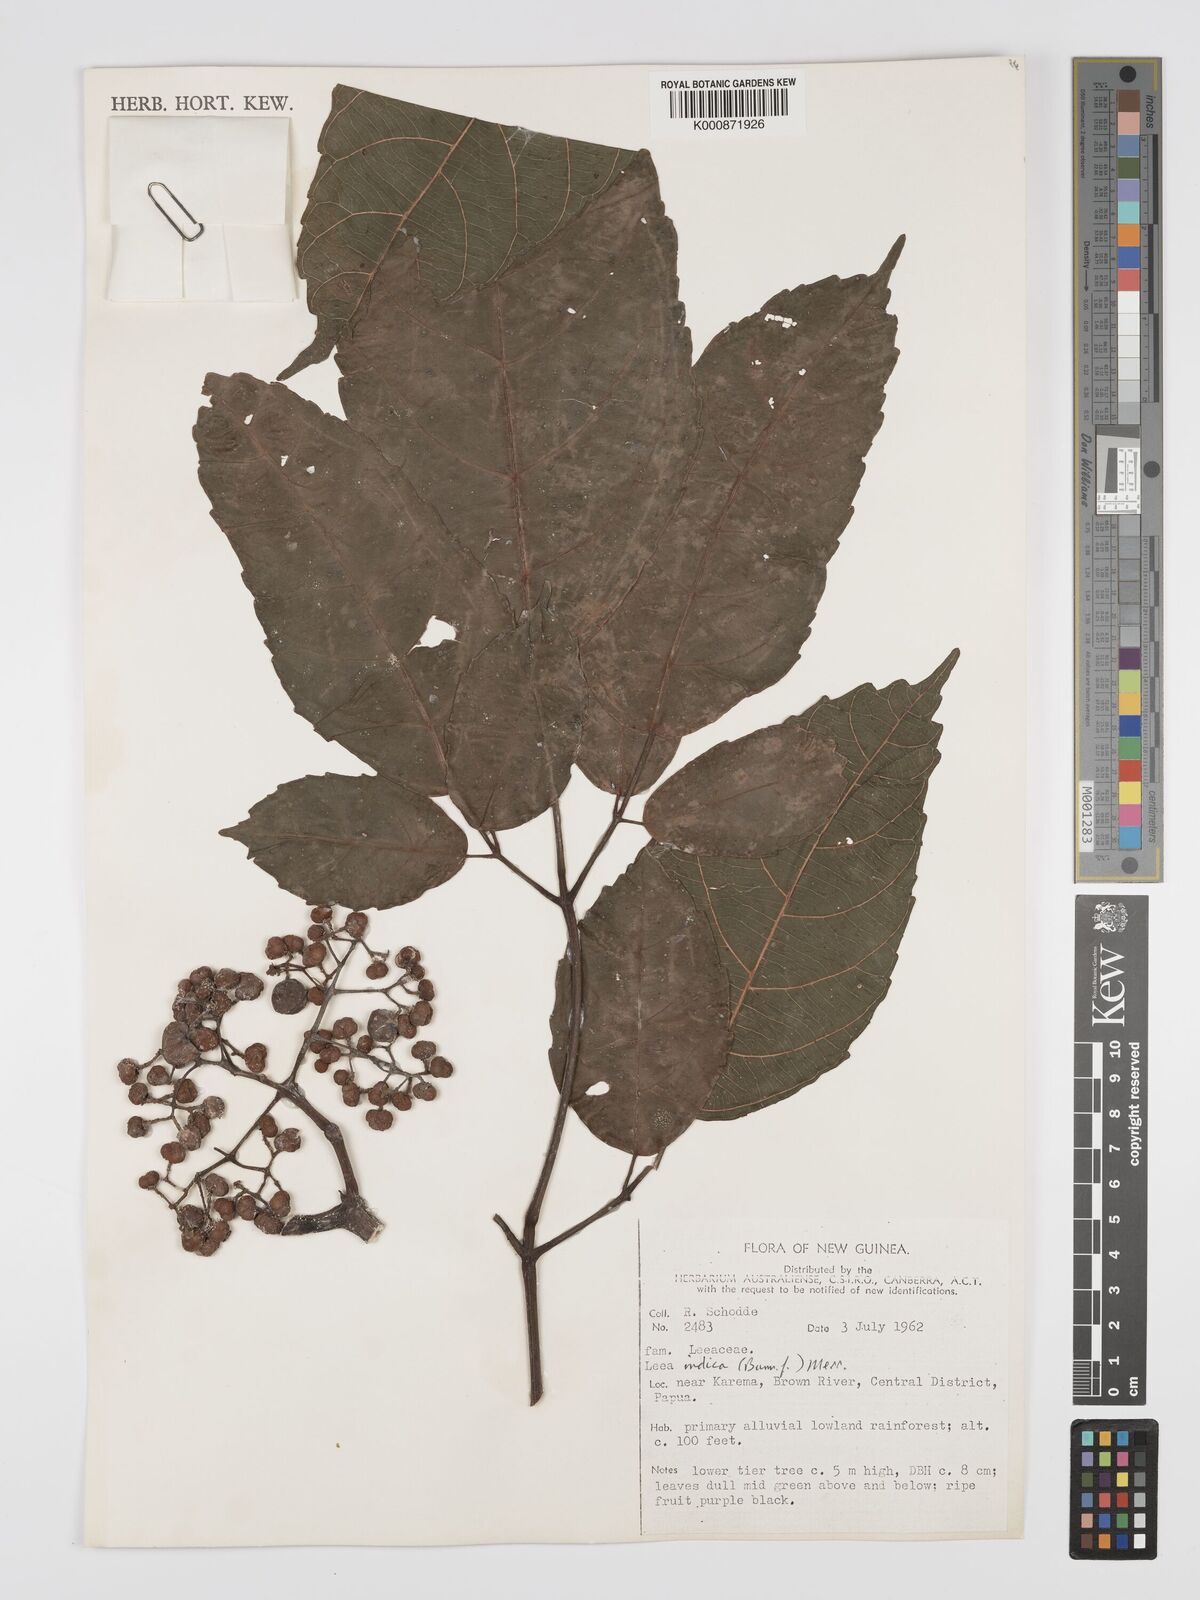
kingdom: Plantae
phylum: Tracheophyta
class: Magnoliopsida
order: Vitales
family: Vitaceae
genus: Leea
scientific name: Leea indica
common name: Bandicoot-berry
